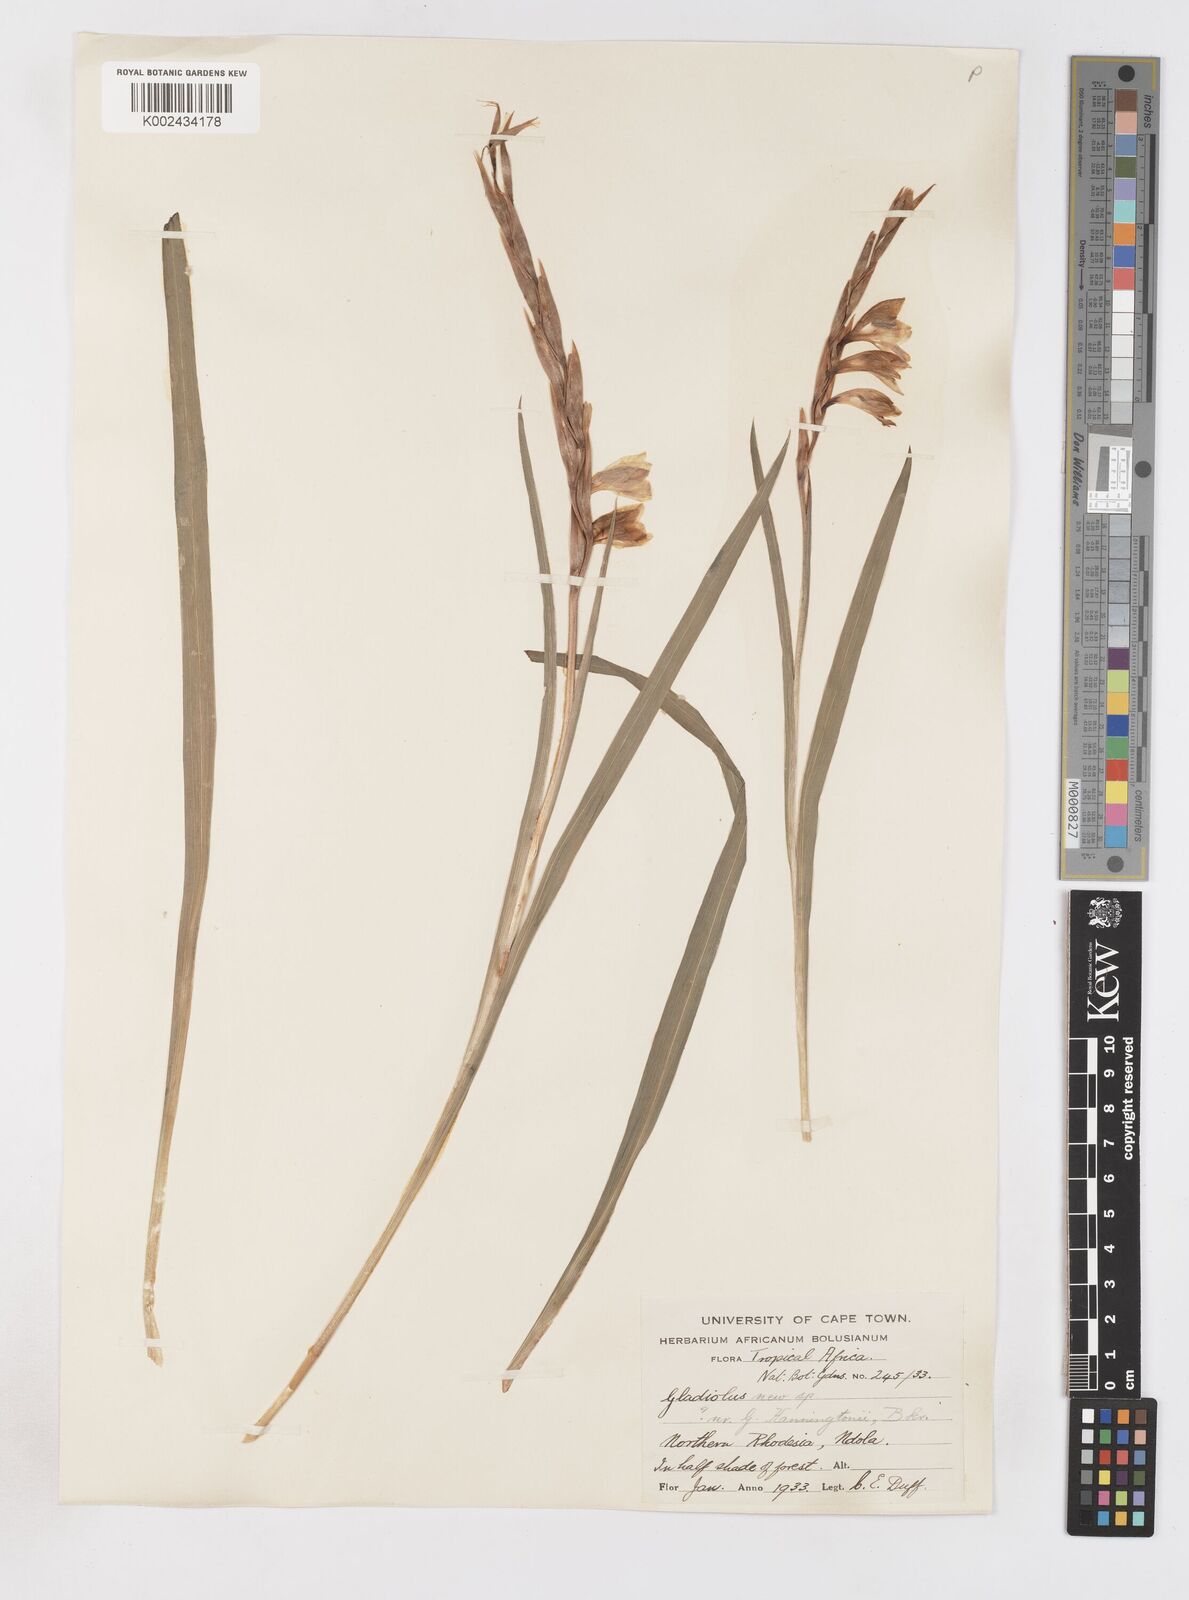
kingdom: Plantae
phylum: Tracheophyta
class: Liliopsida
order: Asparagales
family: Iridaceae
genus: Gladiolus
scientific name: Gladiolus gregarius
